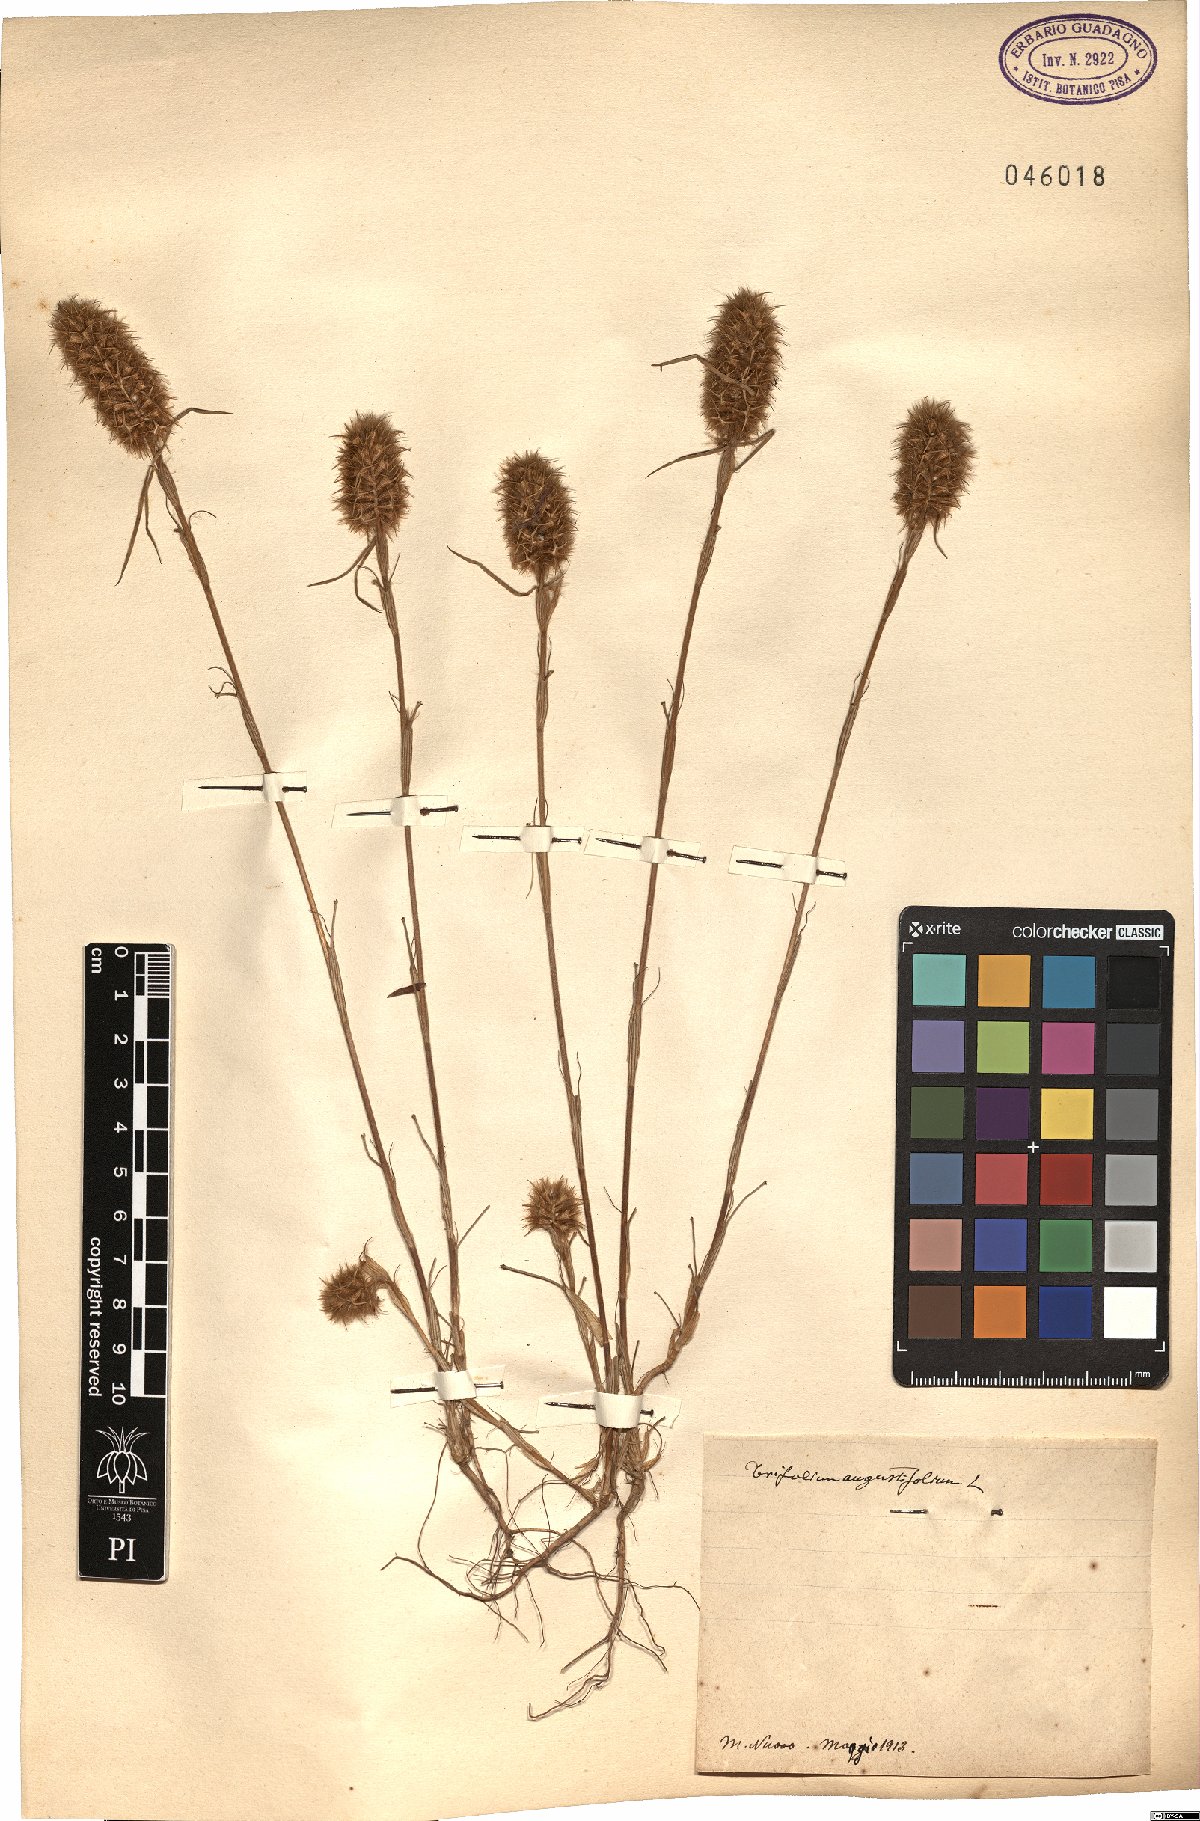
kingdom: Plantae
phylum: Tracheophyta
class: Magnoliopsida
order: Fabales
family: Fabaceae
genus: Trifolium
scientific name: Trifolium angustifolium
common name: Narrow clover
